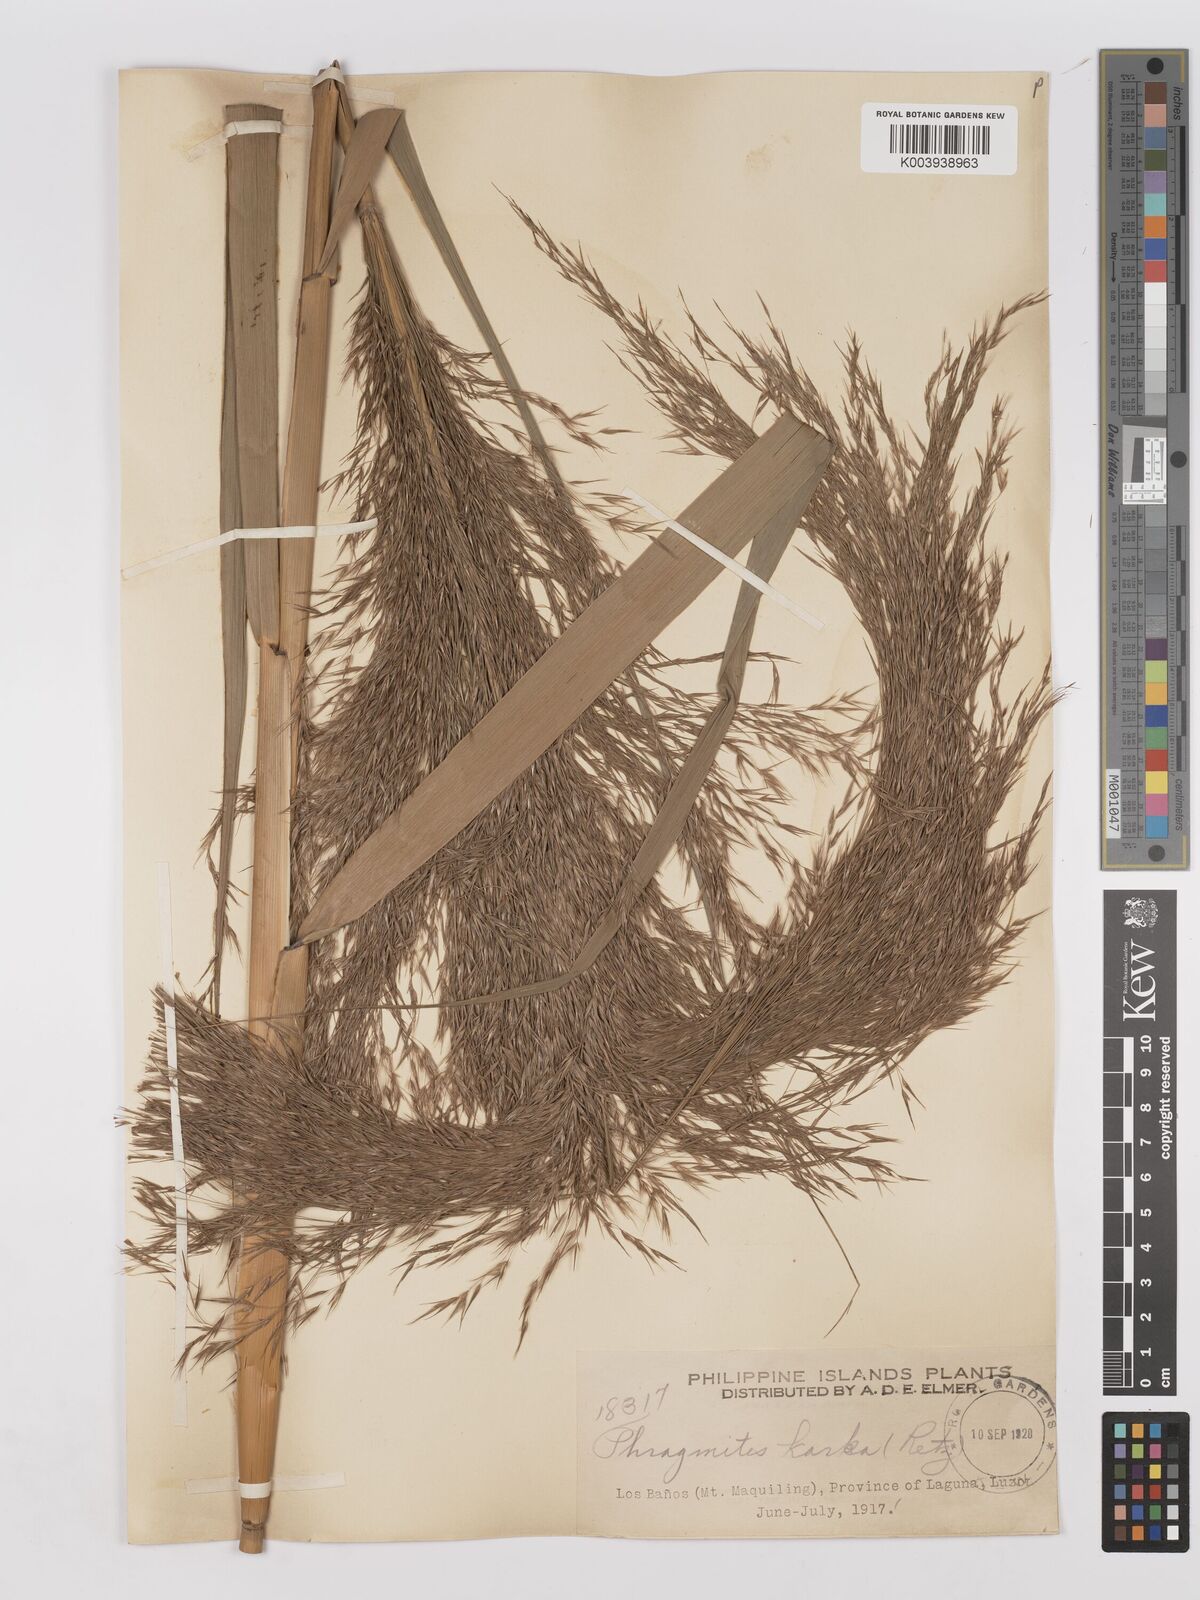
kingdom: Plantae
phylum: Tracheophyta
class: Liliopsida
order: Poales
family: Poaceae
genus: Phragmites
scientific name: Phragmites karka
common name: Tropical reed
